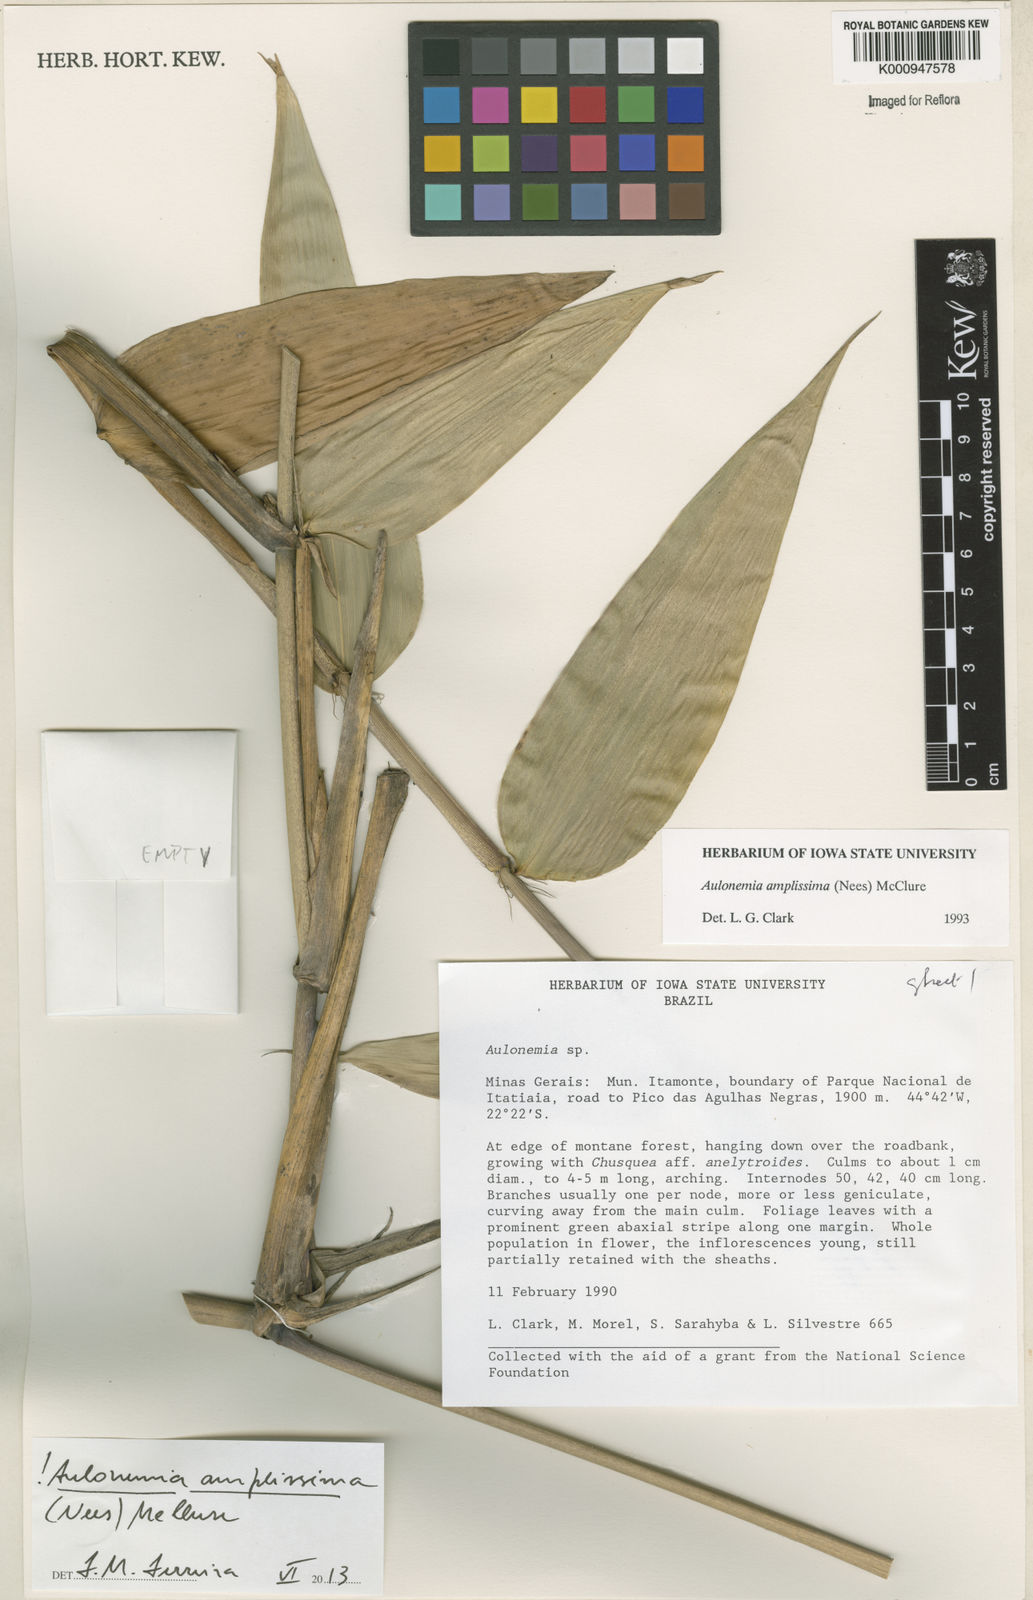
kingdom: Plantae
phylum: Tracheophyta
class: Liliopsida
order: Poales
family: Poaceae
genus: Aulonemia
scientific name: Aulonemia amplissima
